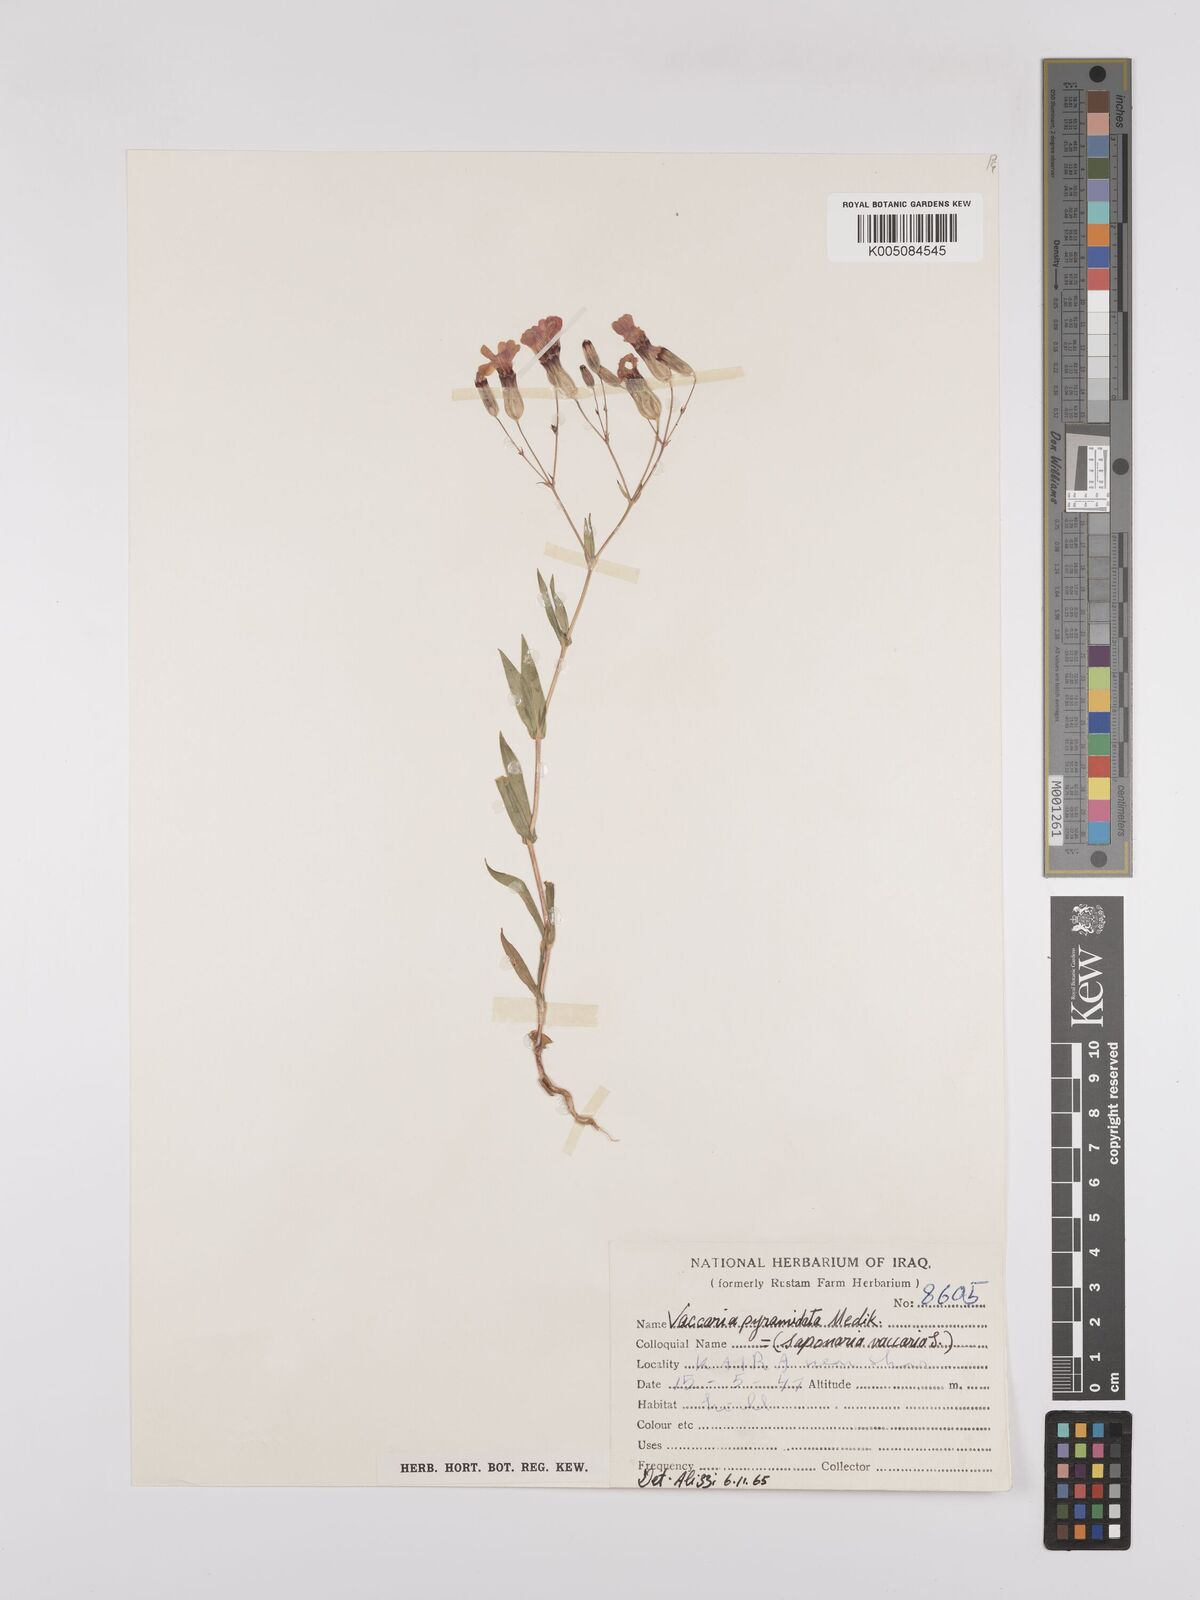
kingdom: Plantae
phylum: Tracheophyta
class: Magnoliopsida
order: Caryophyllales
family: Caryophyllaceae
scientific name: Caryophyllaceae
